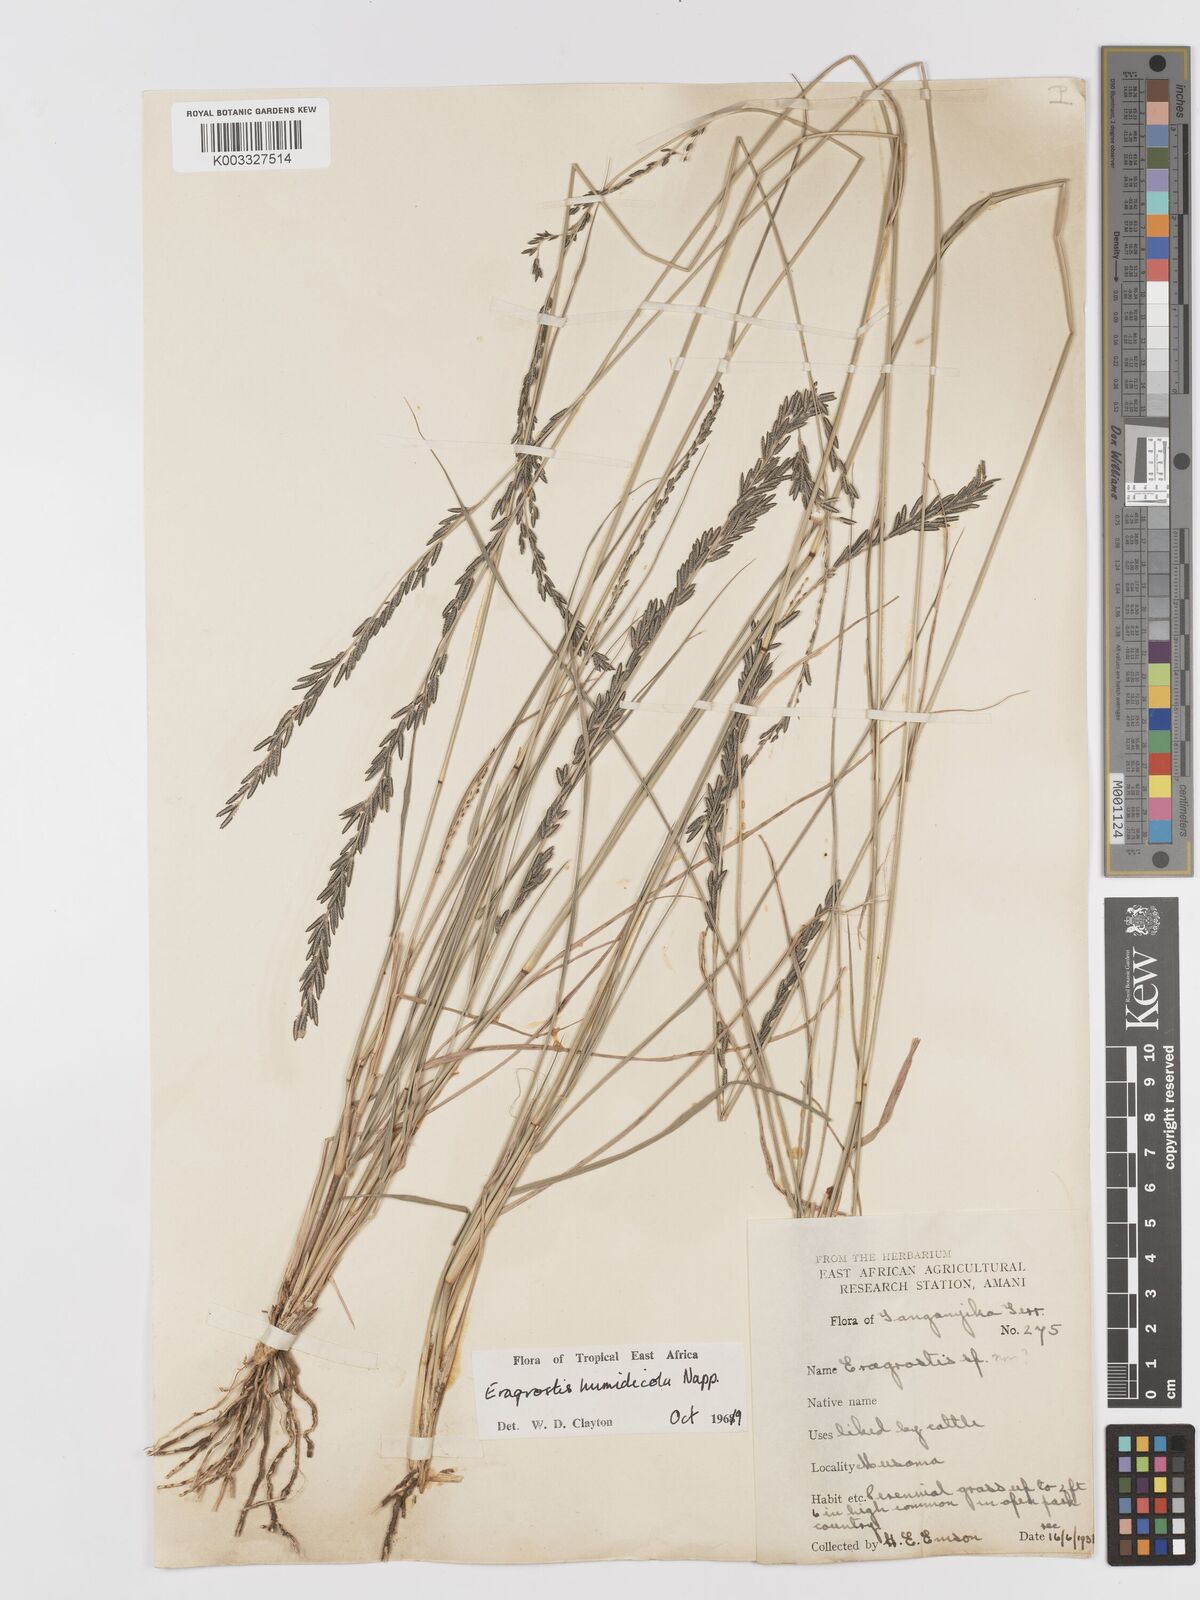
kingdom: Plantae
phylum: Tracheophyta
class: Liliopsida
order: Poales
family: Poaceae
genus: Eragrostis
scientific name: Eragrostis humidicola
